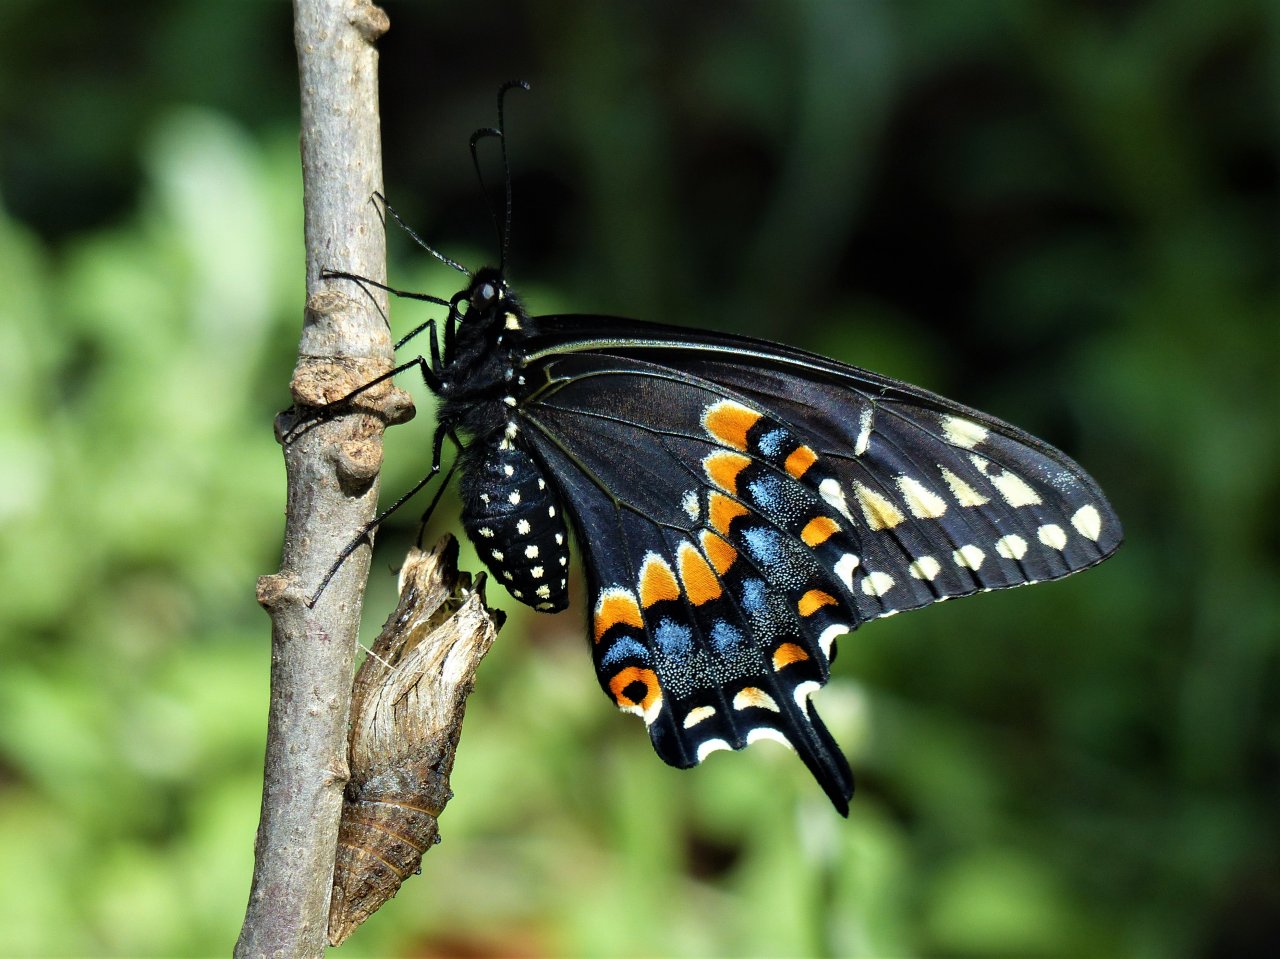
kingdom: Animalia
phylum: Arthropoda
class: Insecta
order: Lepidoptera
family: Papilionidae
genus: Papilio
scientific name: Papilio polyxenes
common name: Black Swallowtail
